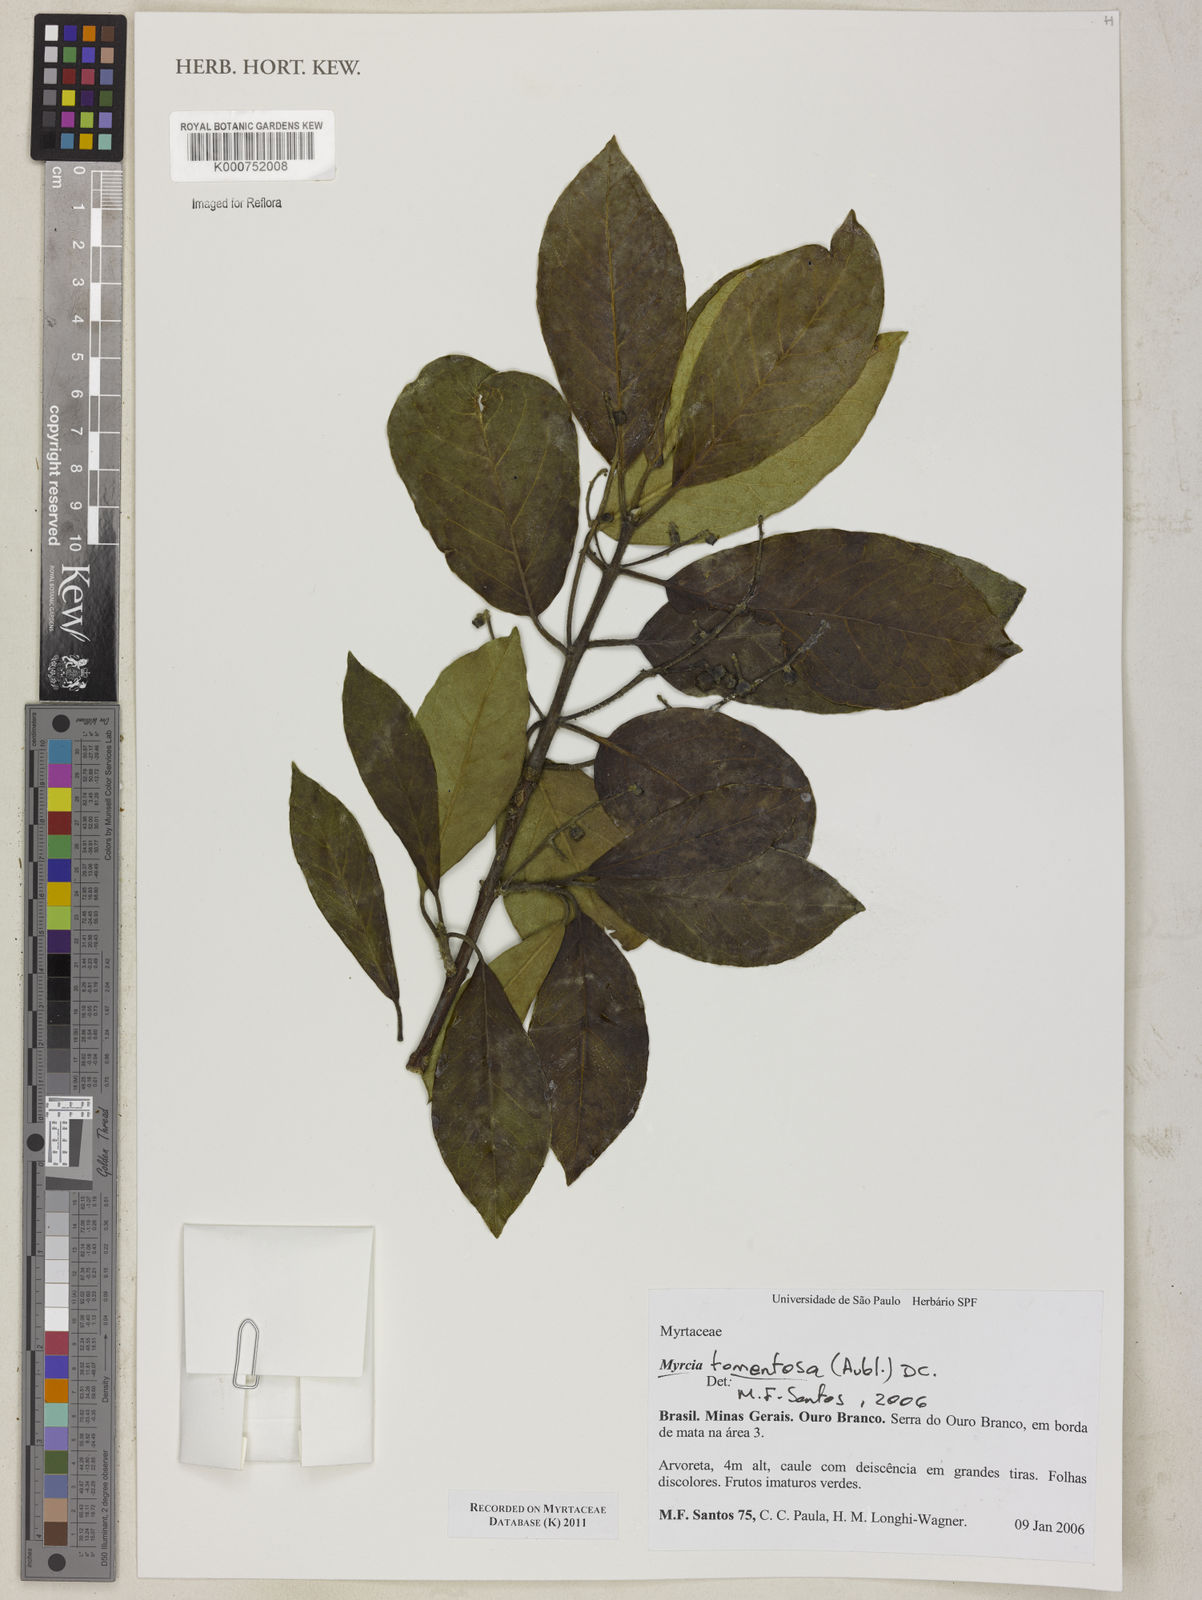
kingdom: Plantae
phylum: Tracheophyta
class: Magnoliopsida
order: Myrtales
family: Myrtaceae
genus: Myrcia
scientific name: Myrcia tomentosa
